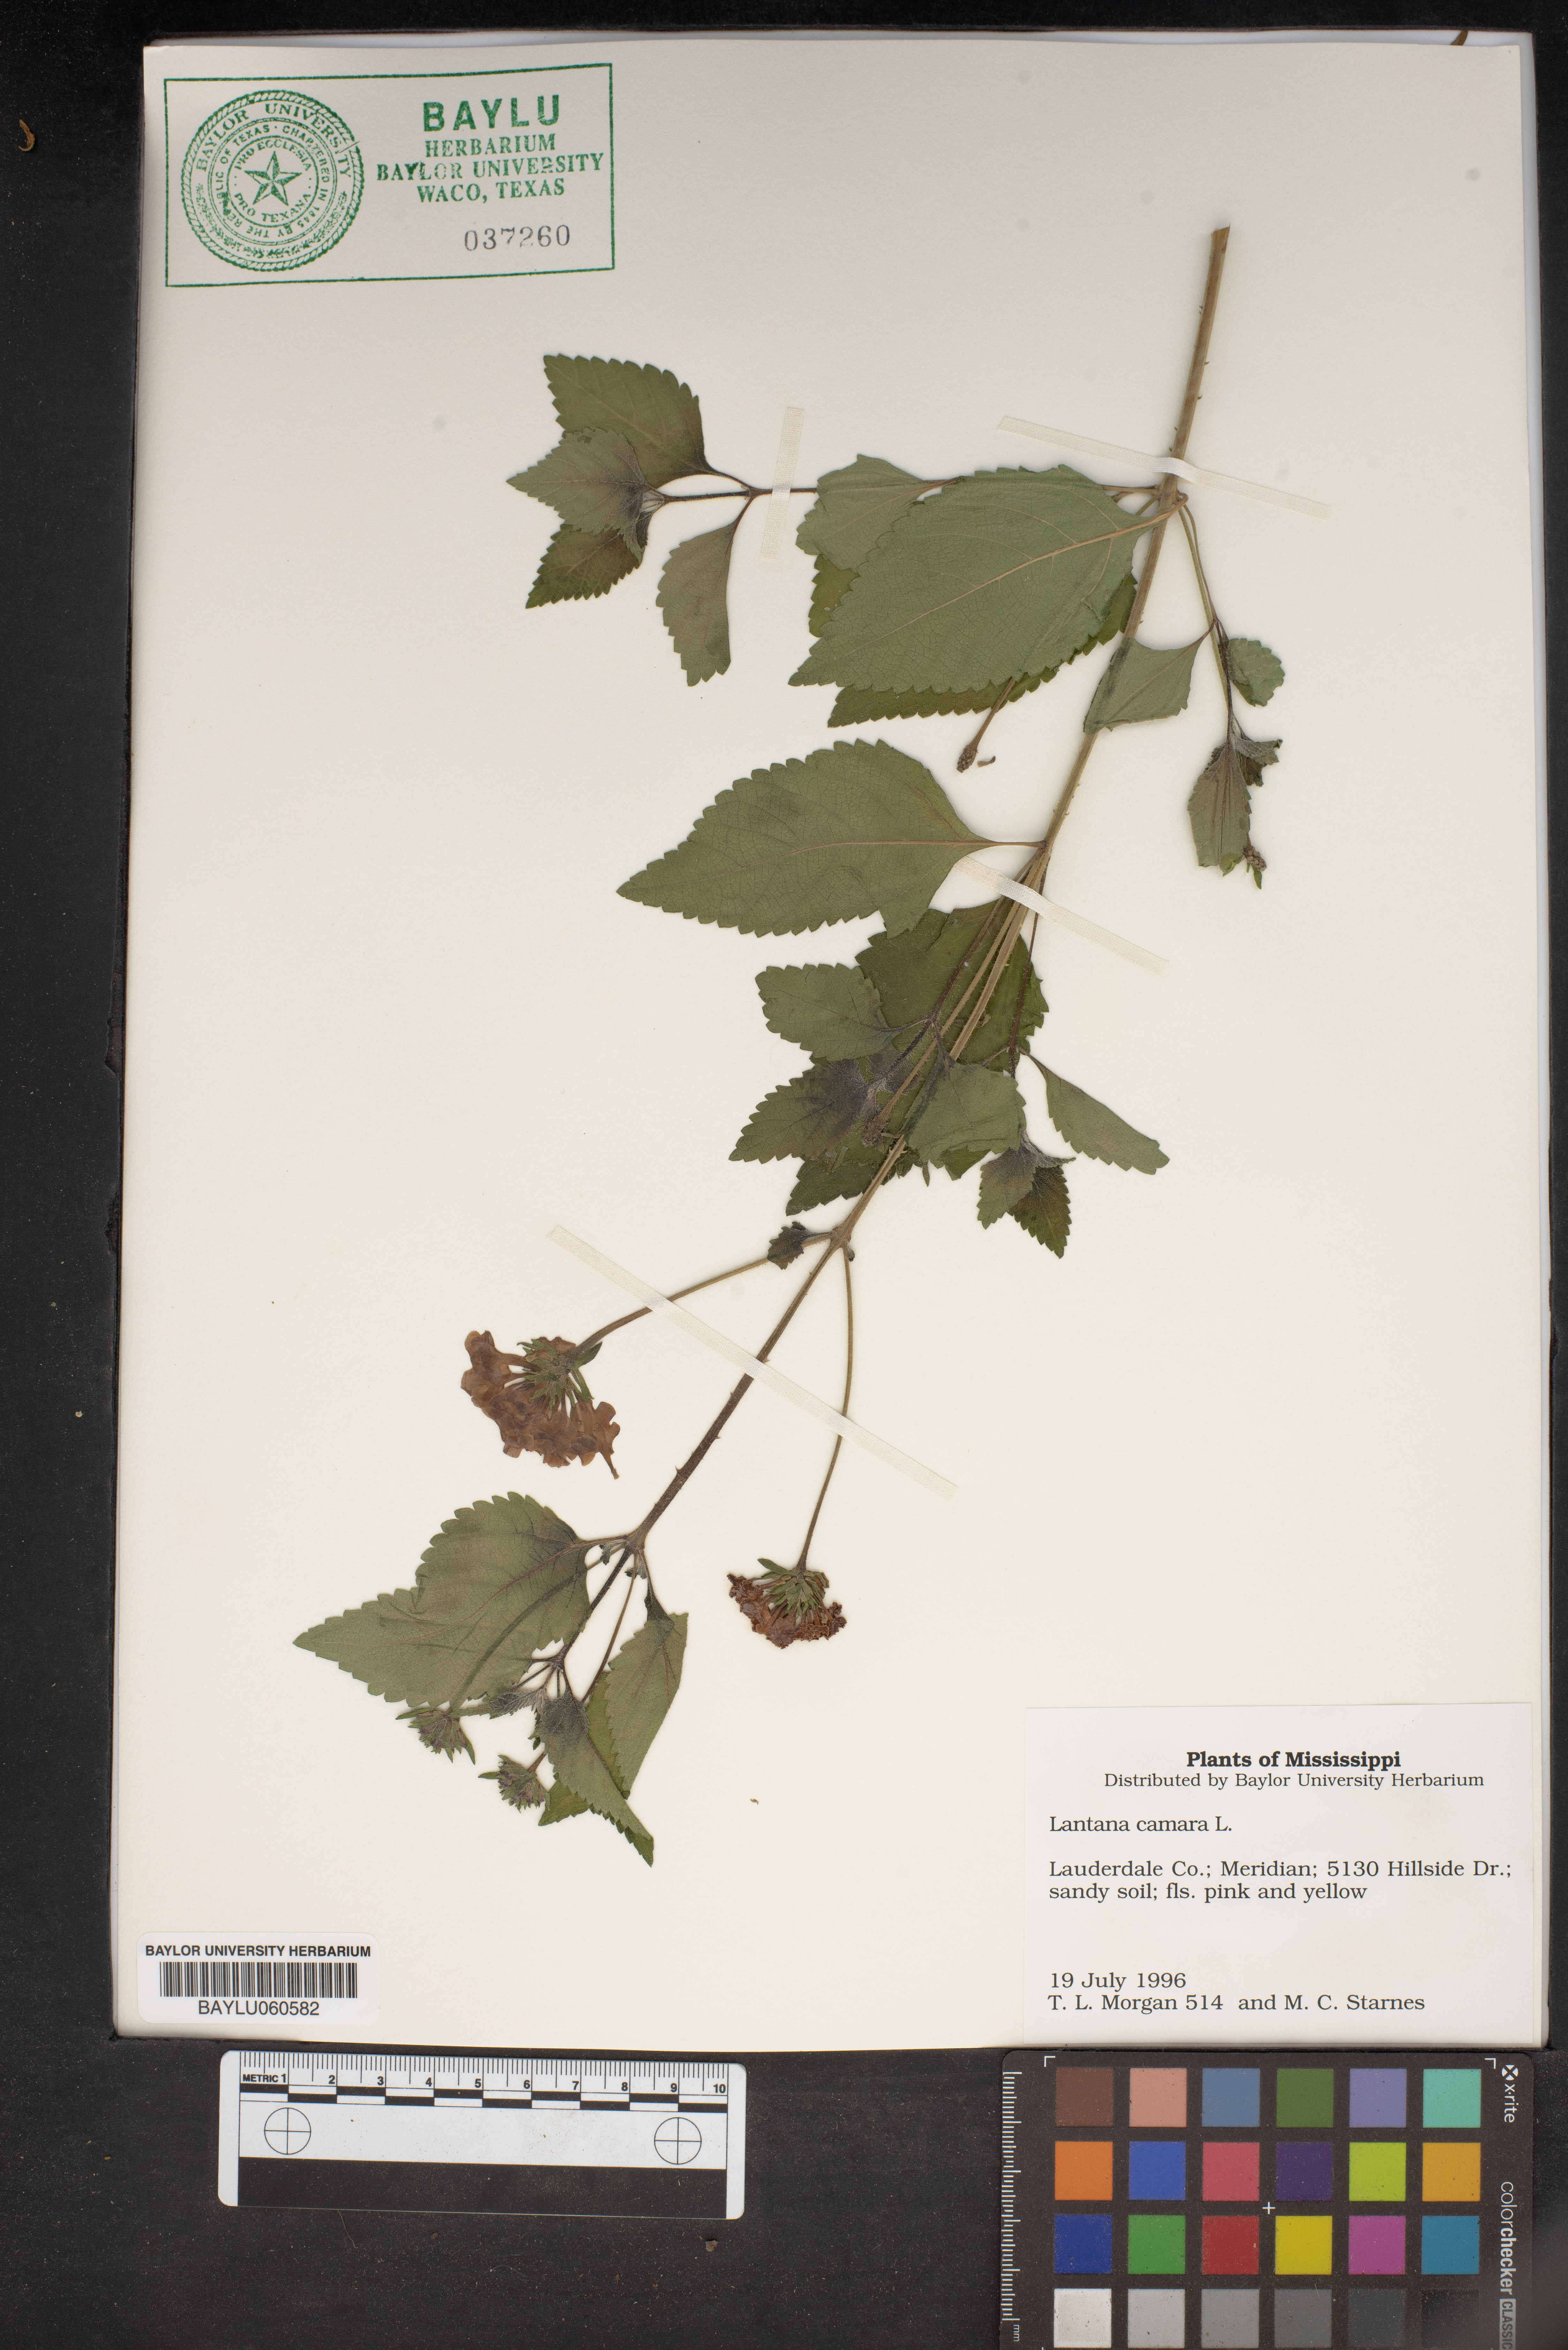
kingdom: Plantae
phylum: Tracheophyta
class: Magnoliopsida
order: Lamiales
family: Verbenaceae
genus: Lantana
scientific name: Lantana camara
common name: Lantana
